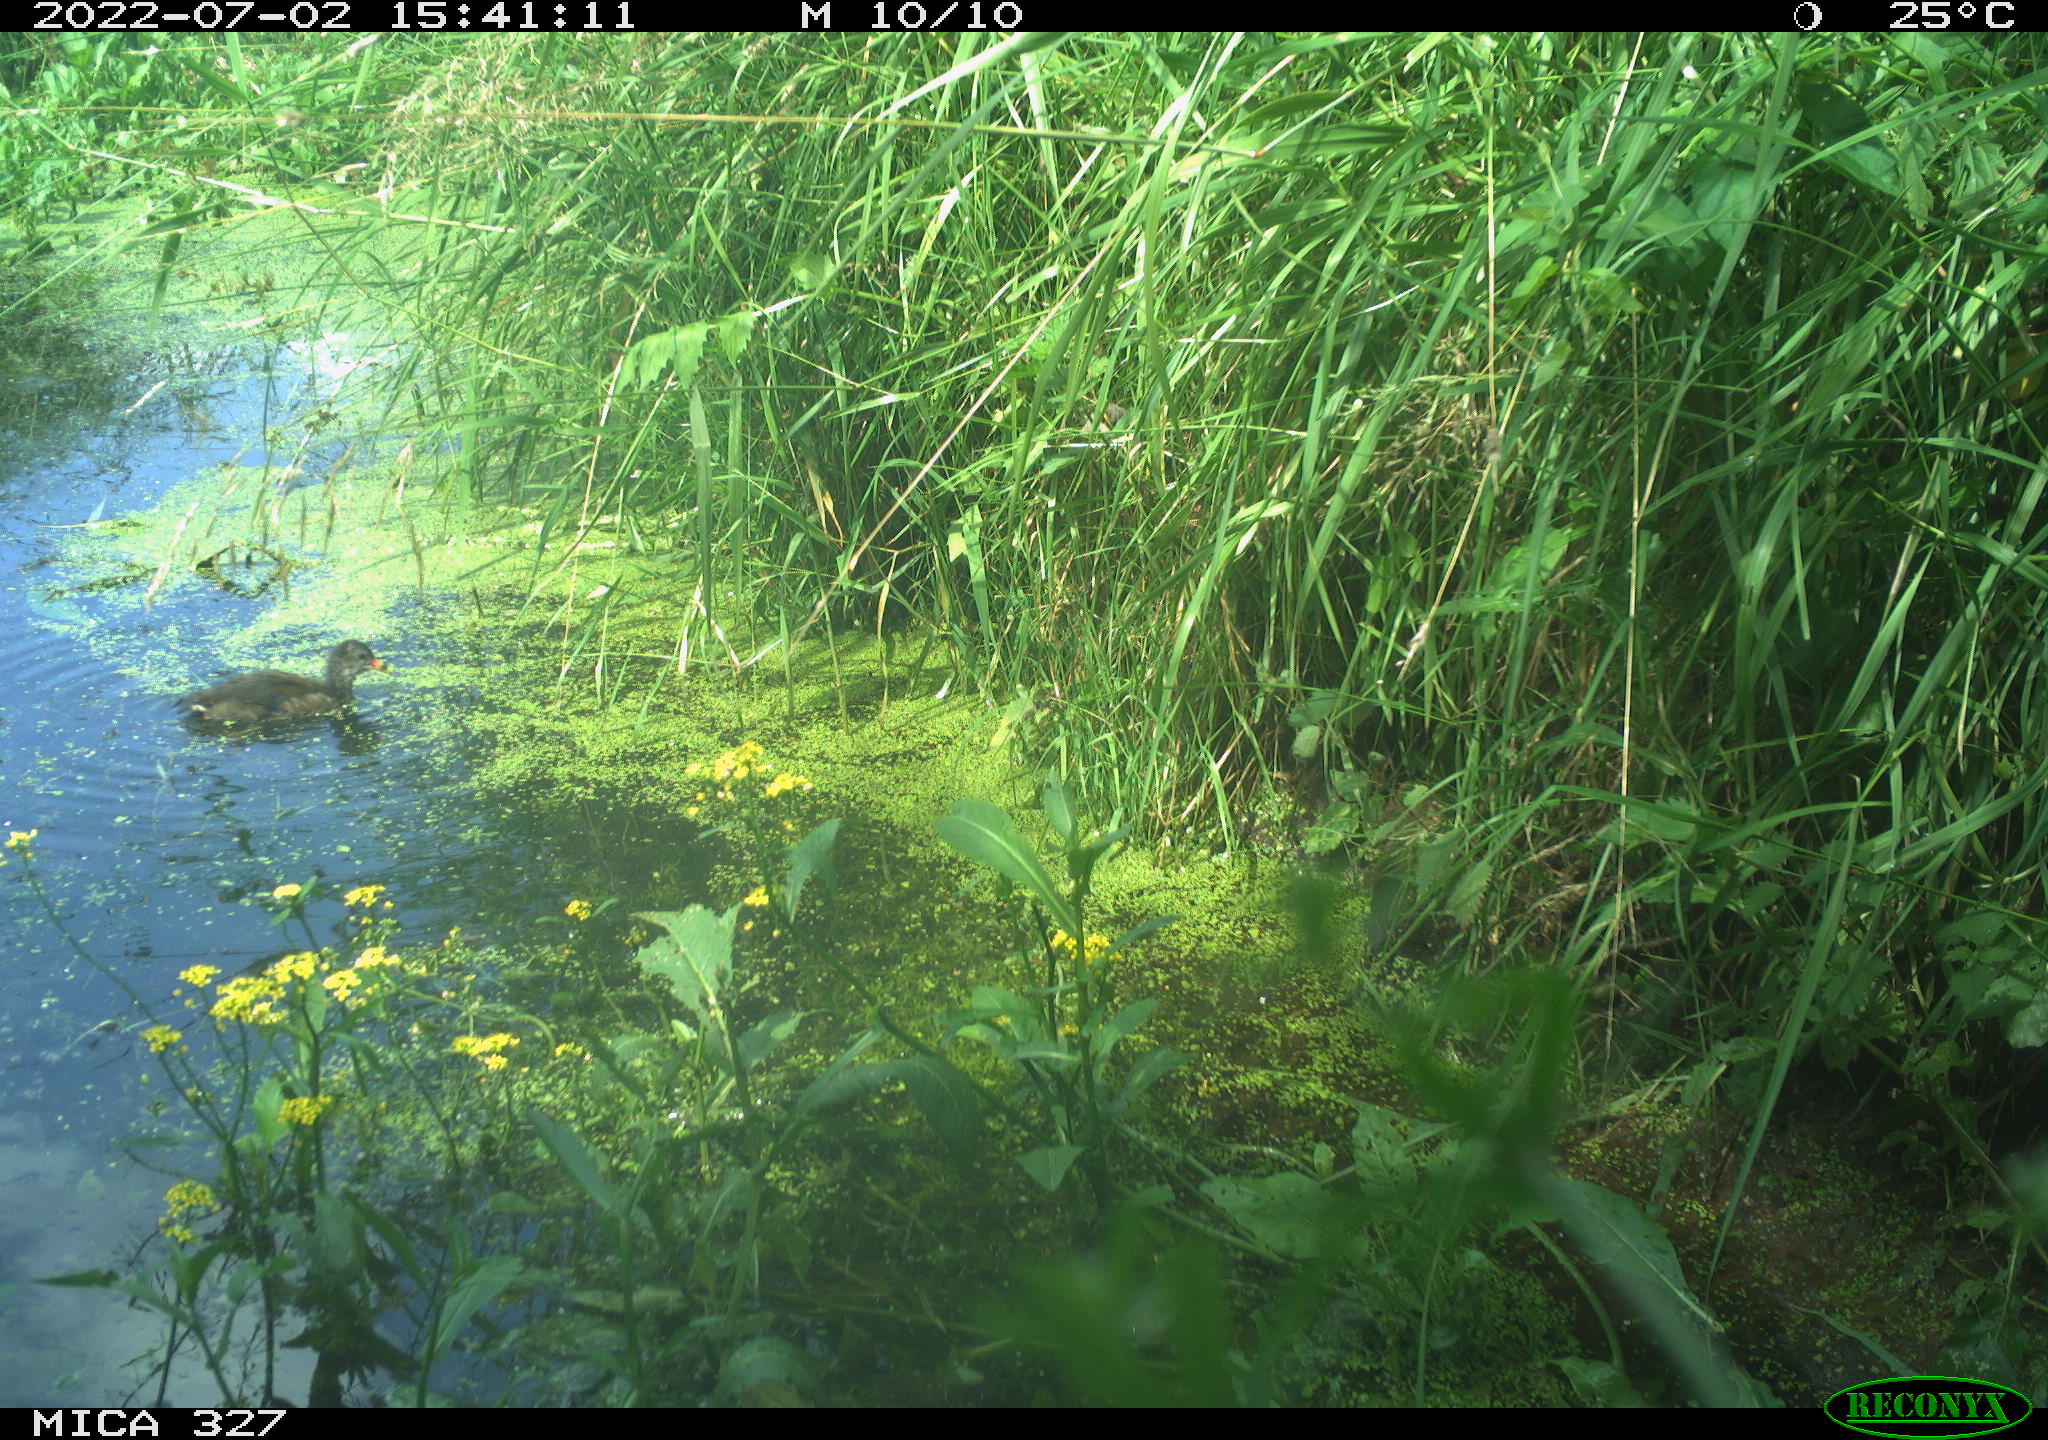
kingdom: Animalia
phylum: Chordata
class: Aves
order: Gruiformes
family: Rallidae
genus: Gallinula
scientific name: Gallinula chloropus
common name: Common moorhen
